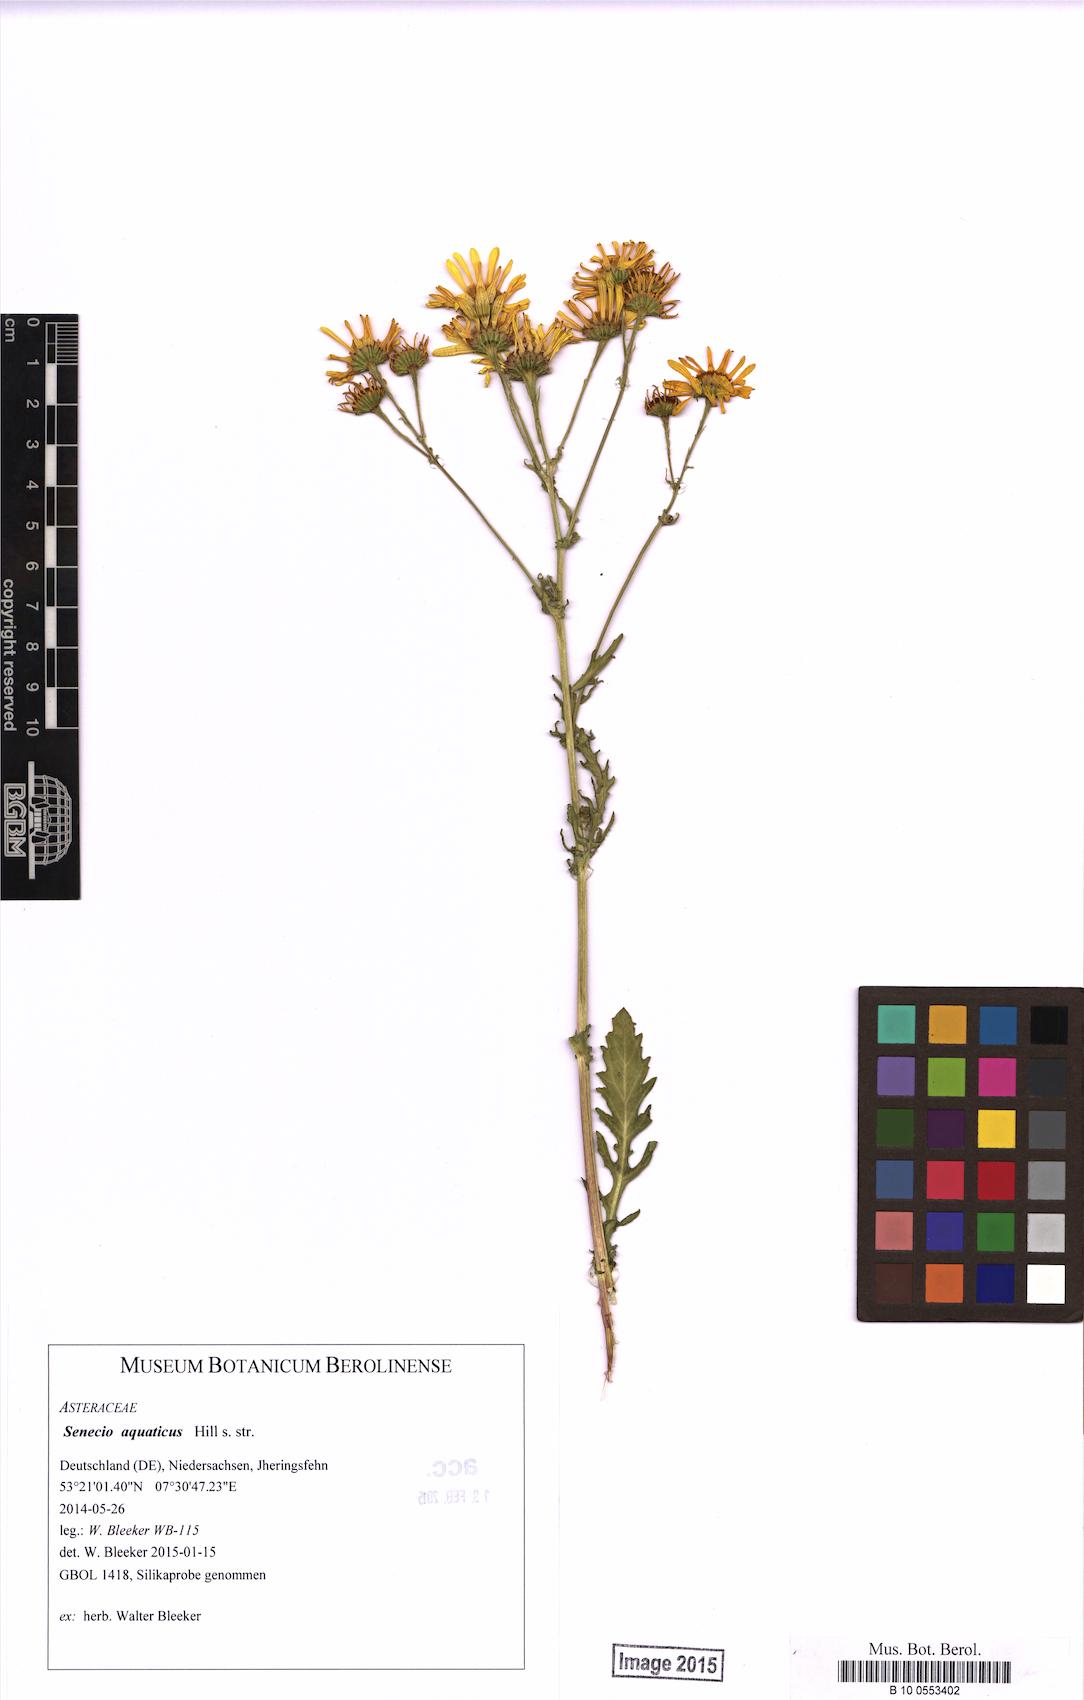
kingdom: Plantae
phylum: Tracheophyta
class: Magnoliopsida
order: Asterales
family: Asteraceae
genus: Jacobaea
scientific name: Jacobaea aquatica
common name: Water ragwort
